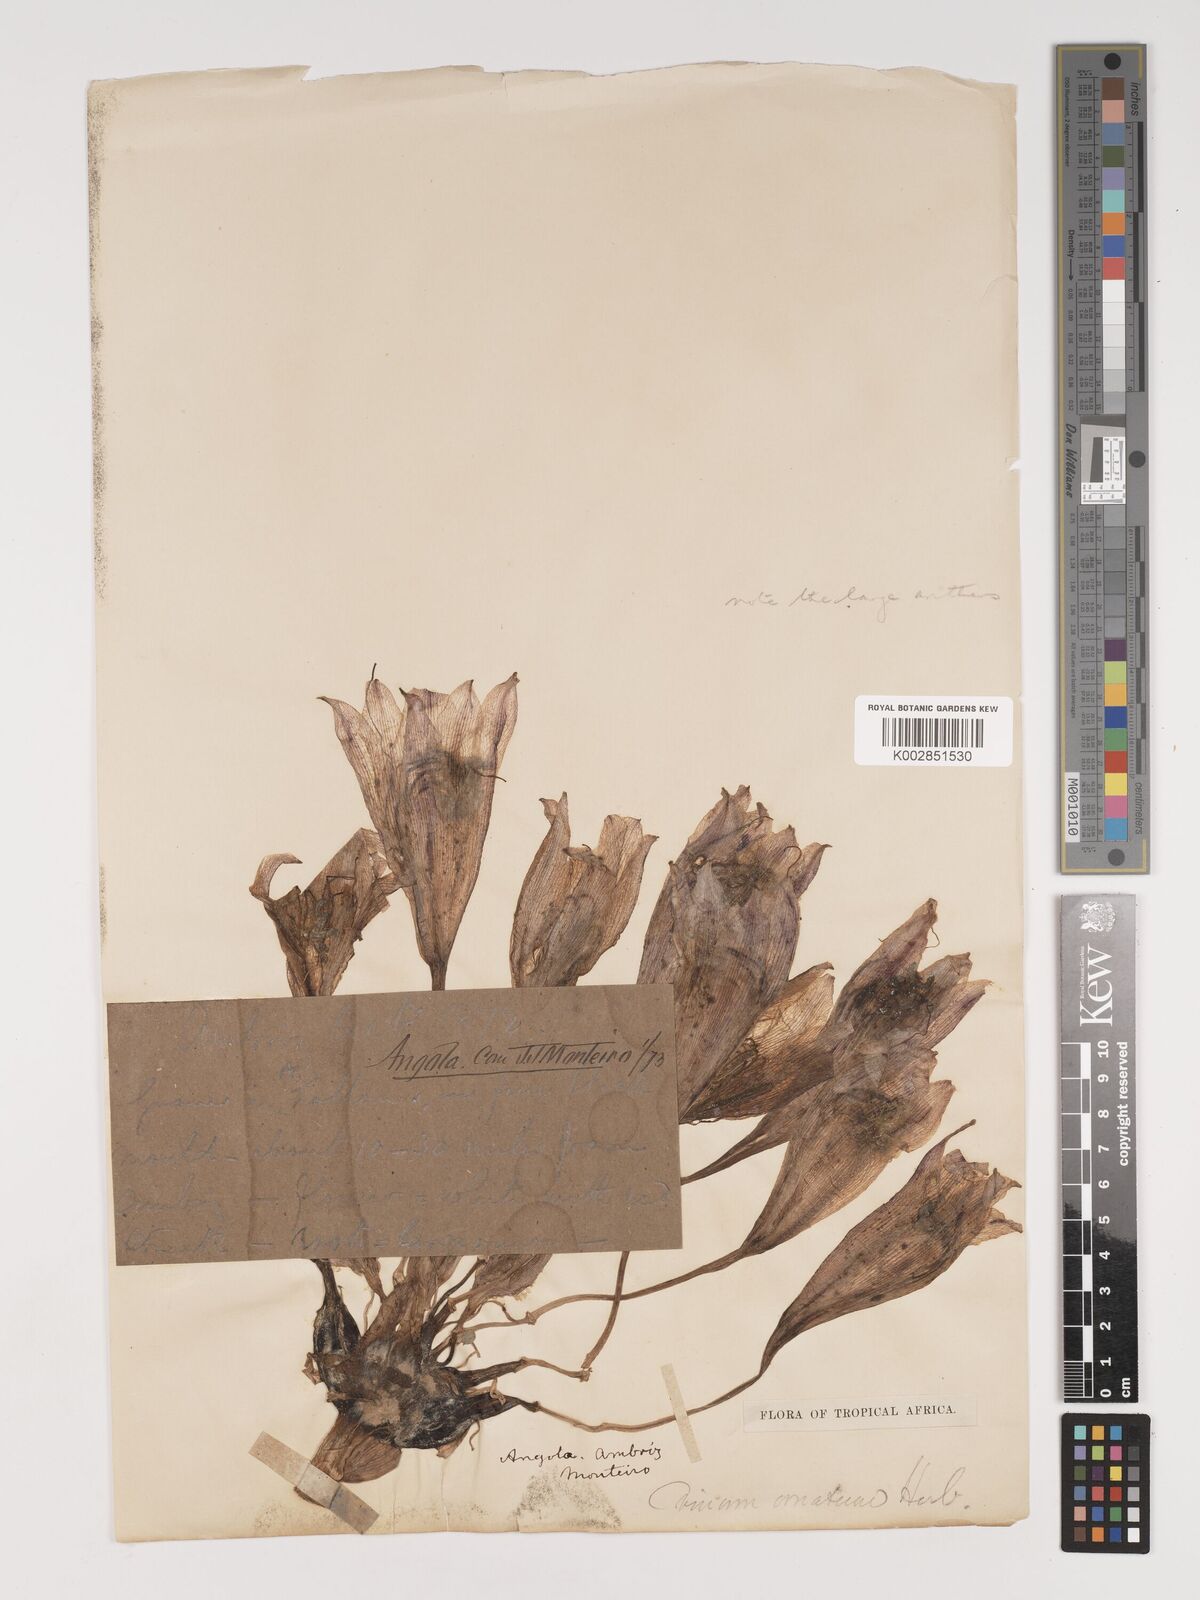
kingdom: Plantae
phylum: Tracheophyta
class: Liliopsida
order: Asparagales
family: Amaryllidaceae
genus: Crinum
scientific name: Crinum crassicaule
